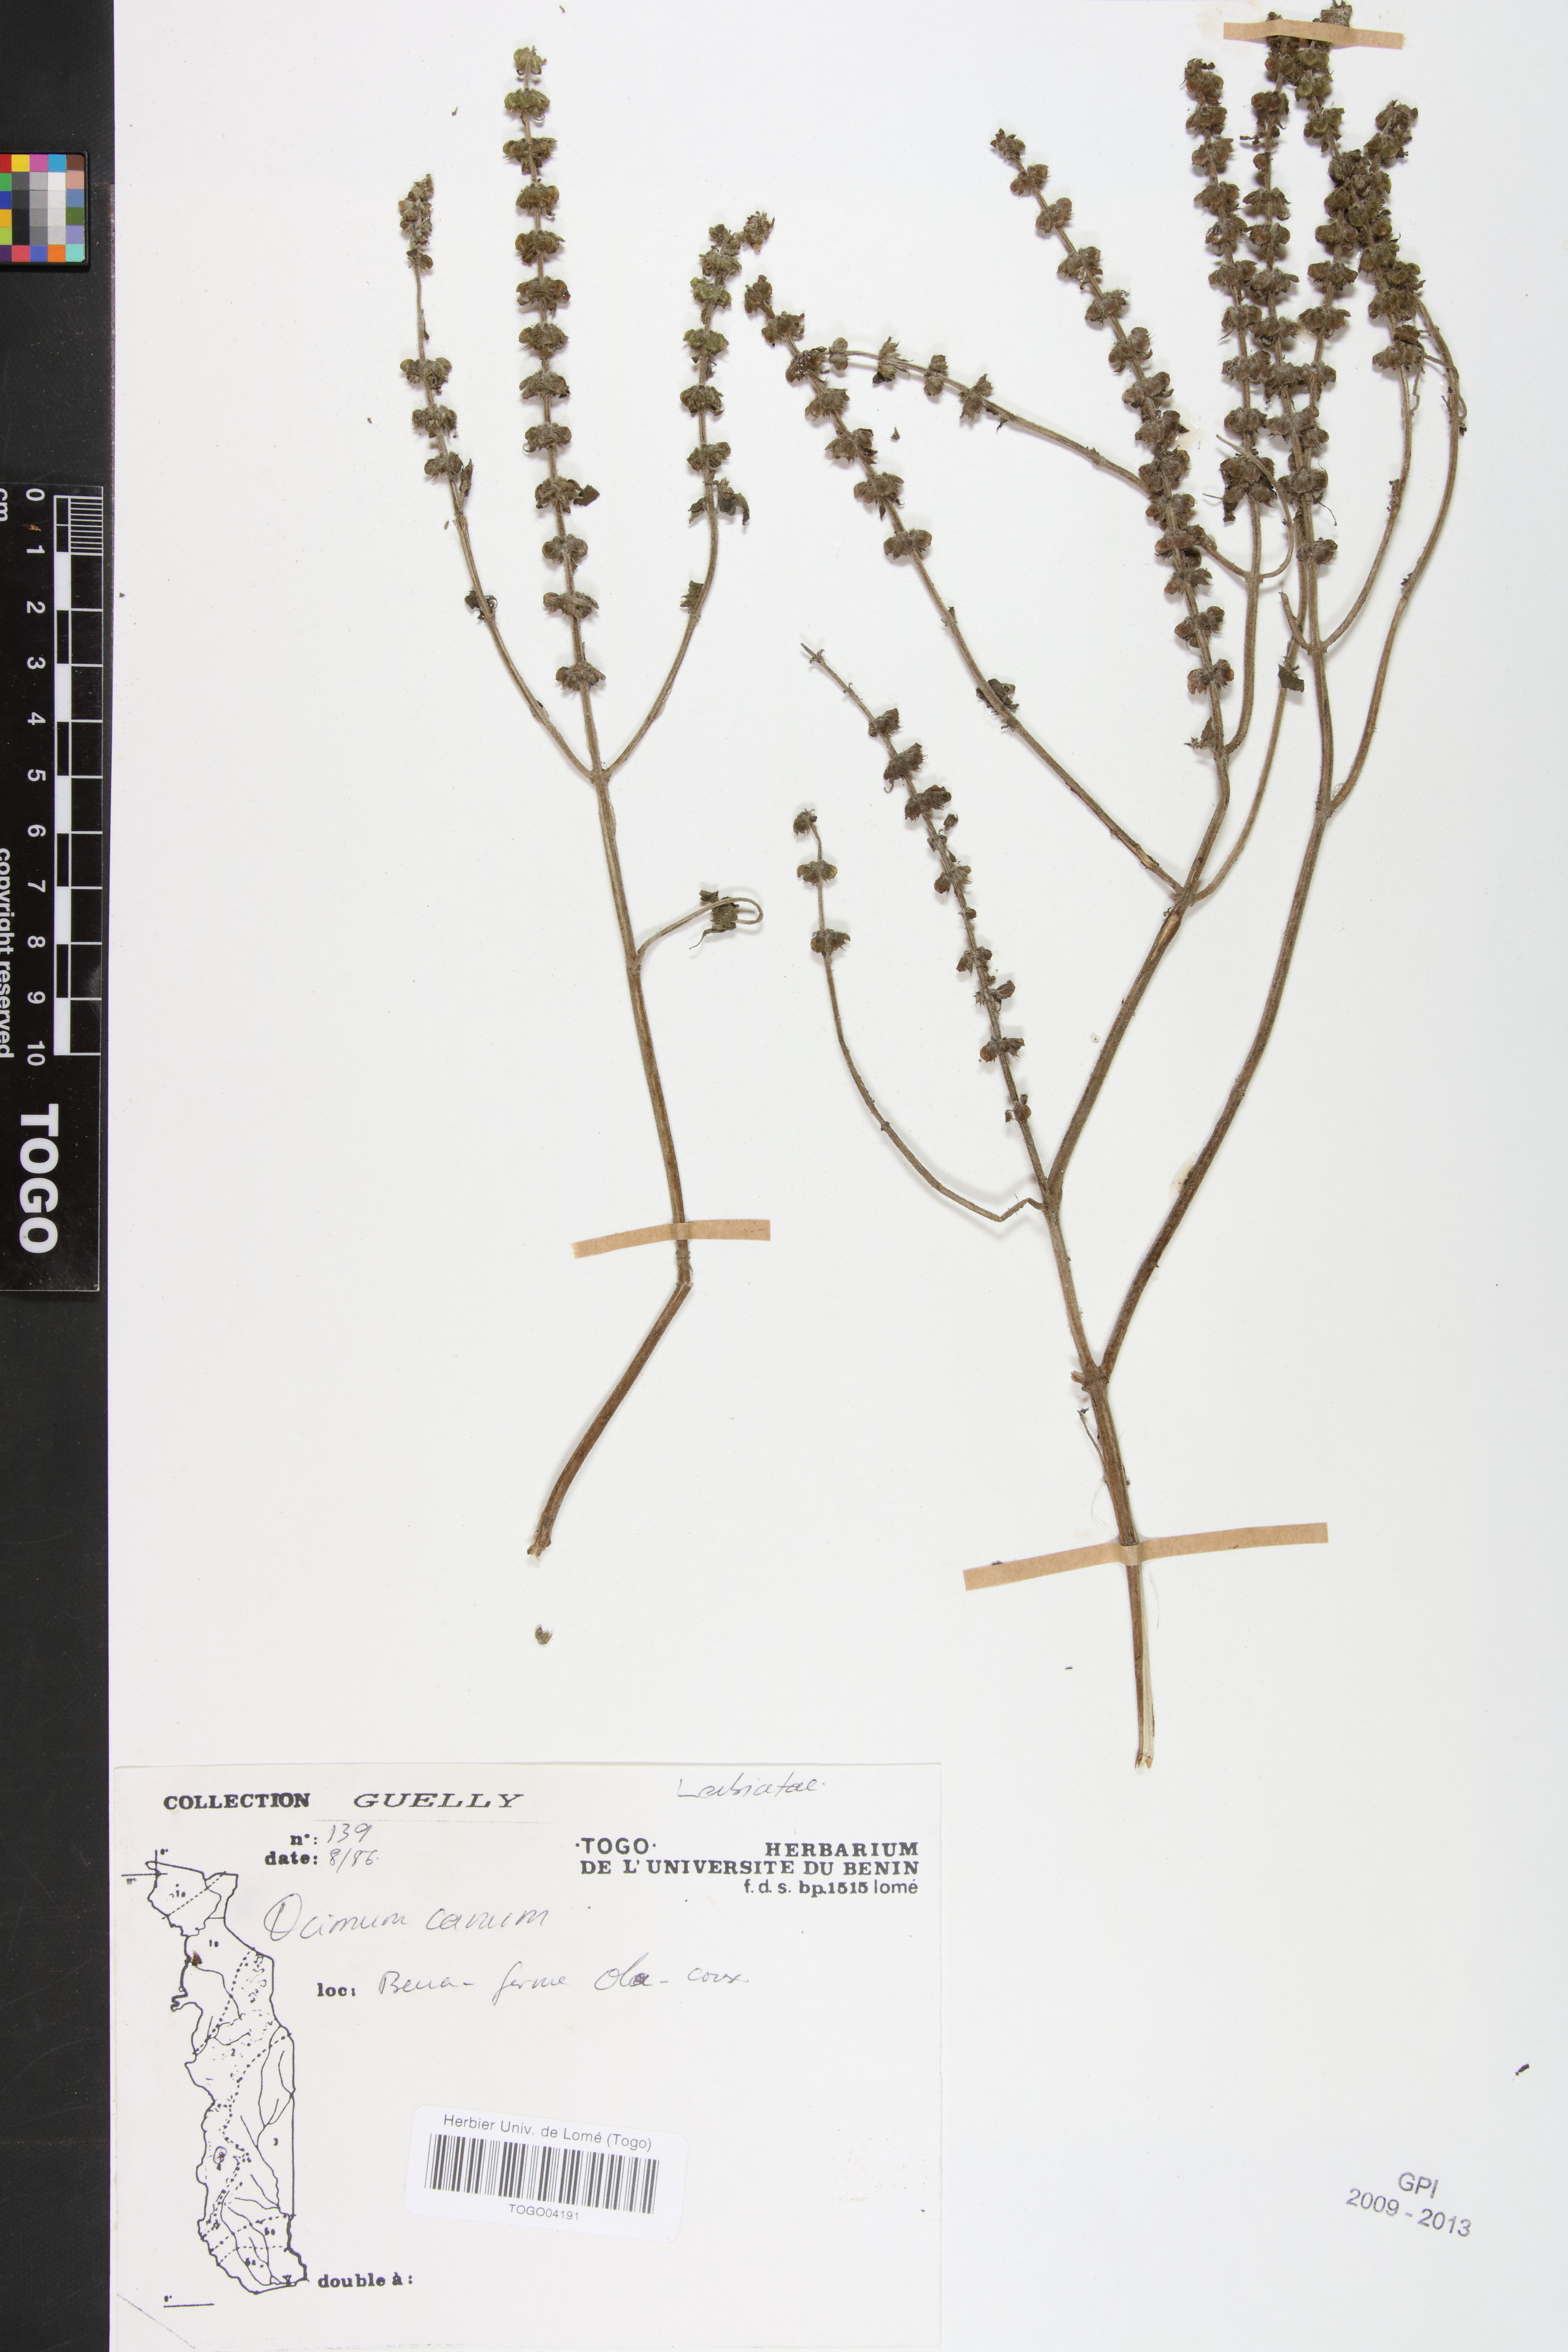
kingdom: Plantae
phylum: Tracheophyta
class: Magnoliopsida
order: Lamiales
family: Lamiaceae
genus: Ocimum
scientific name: Ocimum americanum
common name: American basil
